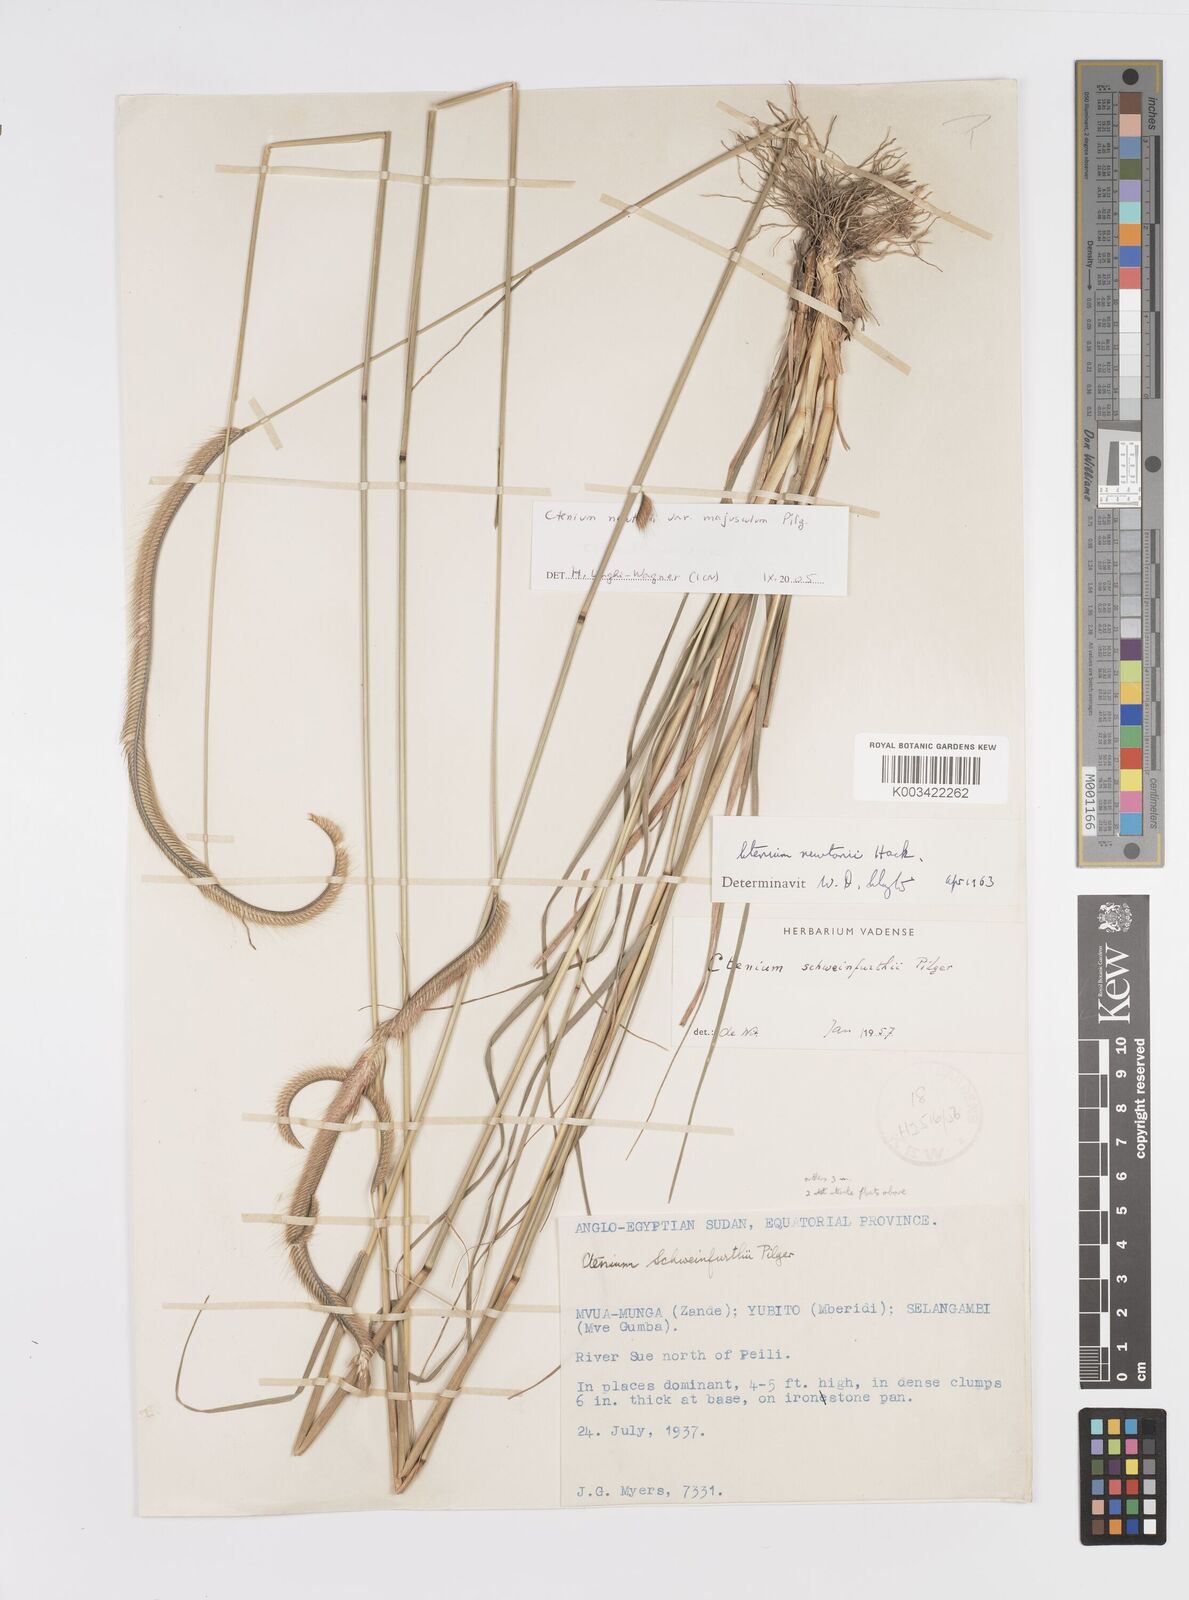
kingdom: Plantae
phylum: Tracheophyta
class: Liliopsida
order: Poales
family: Poaceae
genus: Ctenium
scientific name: Ctenium newtonii
